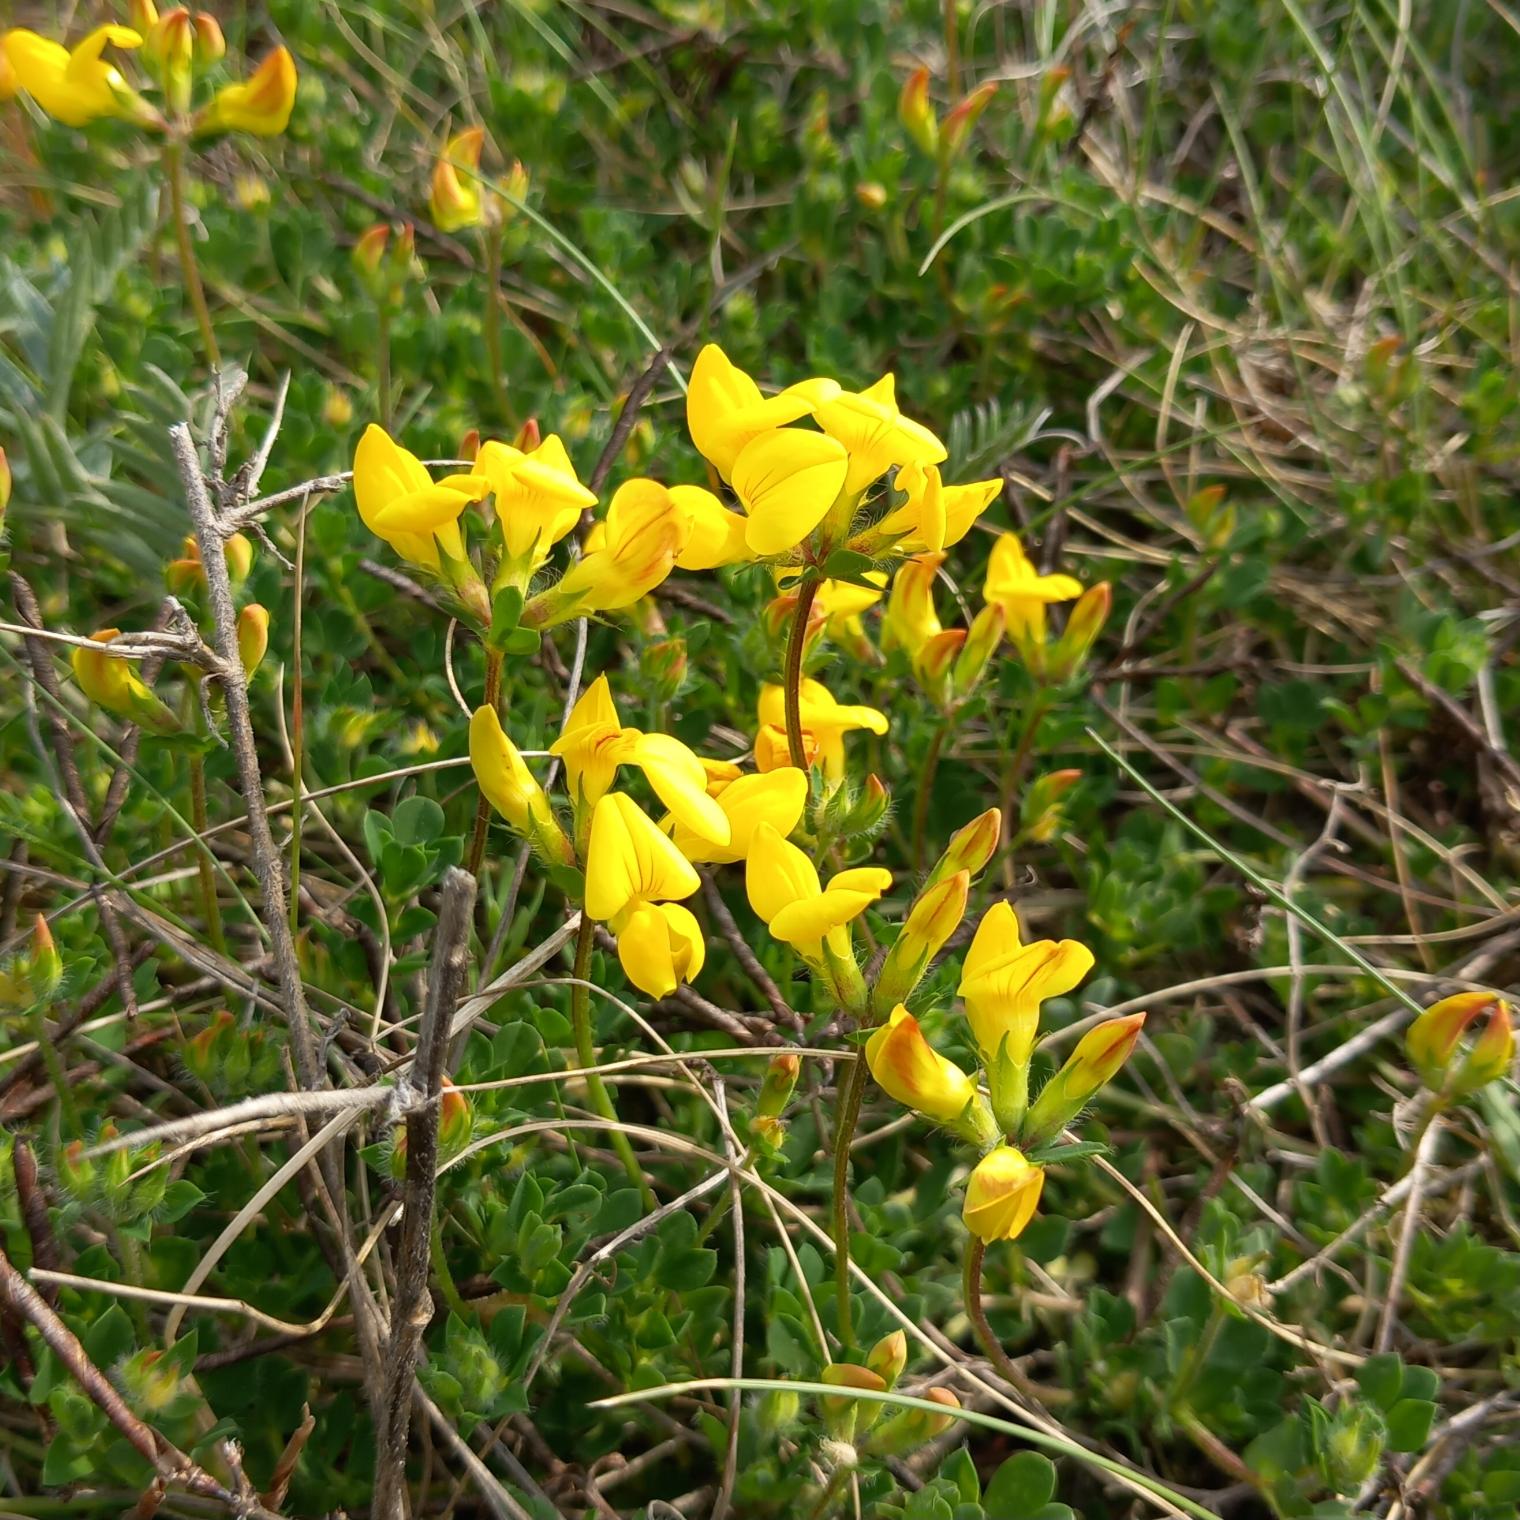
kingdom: Plantae
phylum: Tracheophyta
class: Magnoliopsida
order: Fabales
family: Fabaceae
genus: Lotus
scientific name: Lotus corniculatus
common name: Almindelig kællingetand
